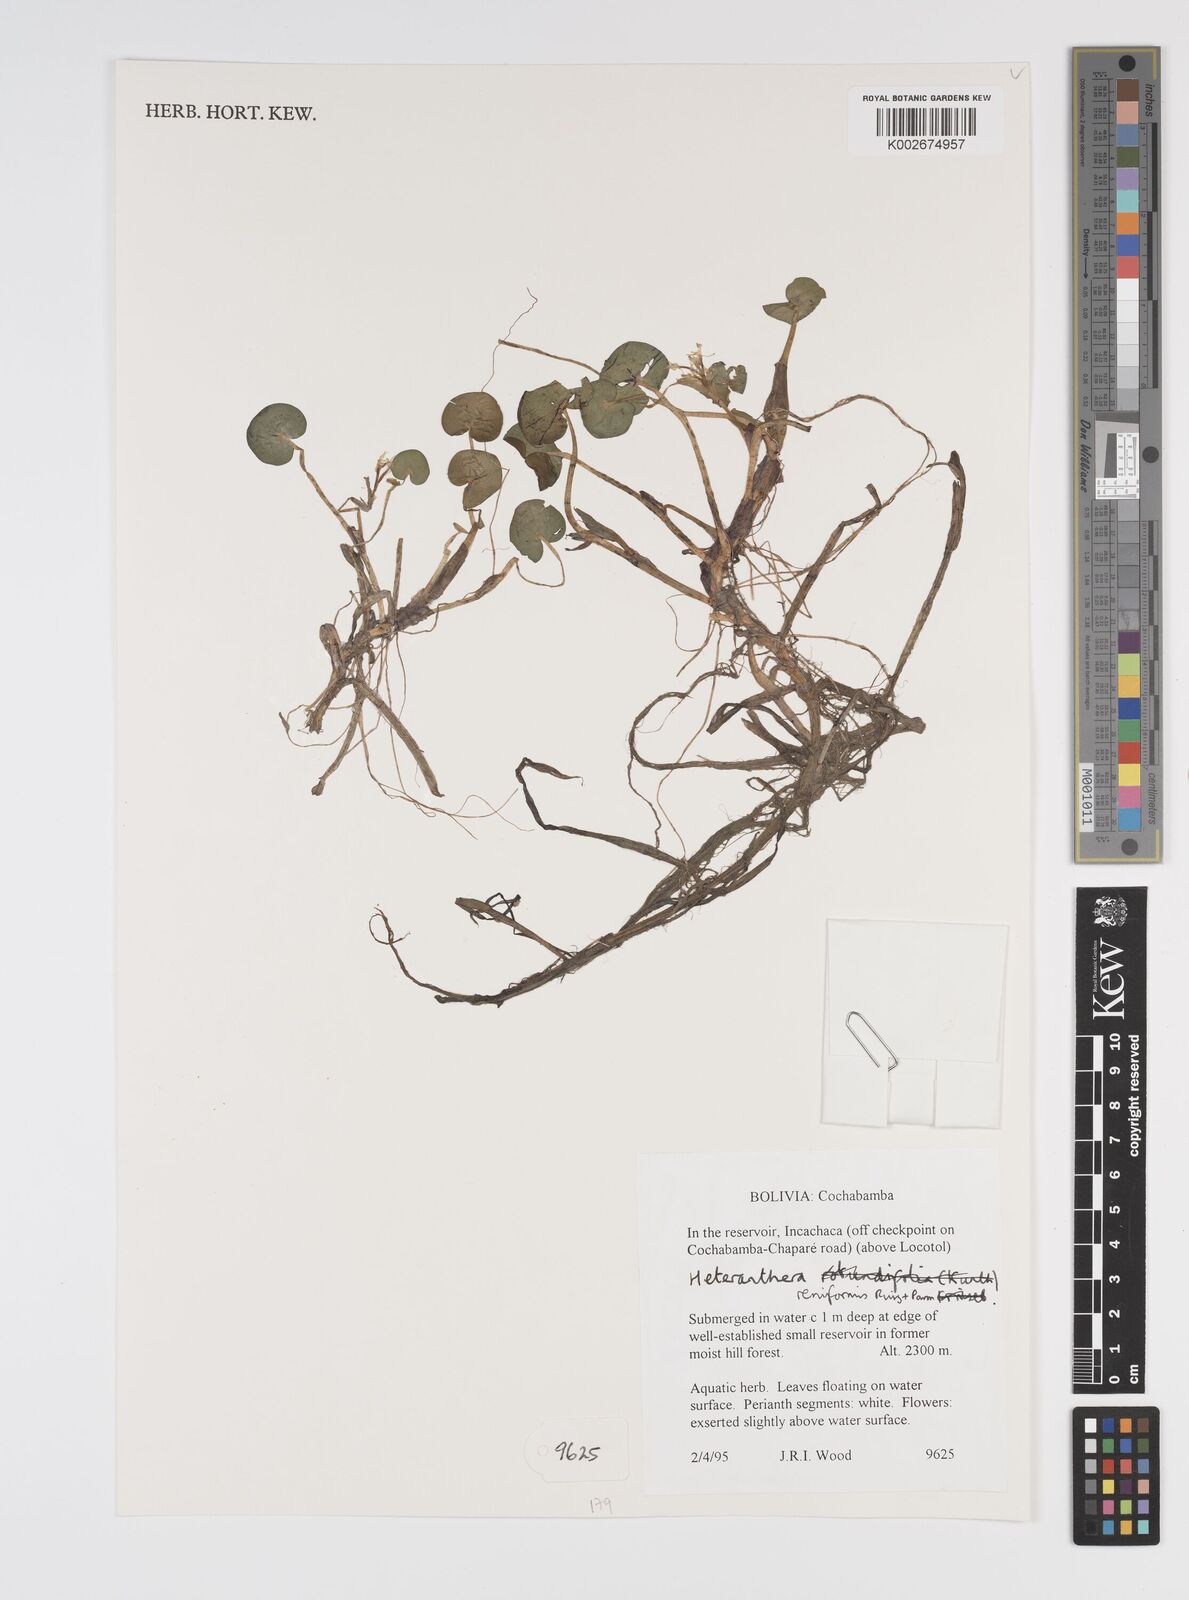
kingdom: Plantae
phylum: Tracheophyta
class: Liliopsida
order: Commelinales
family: Pontederiaceae
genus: Heteranthera
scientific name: Heteranthera reniformis
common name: Kidneyleaf mudplantain
